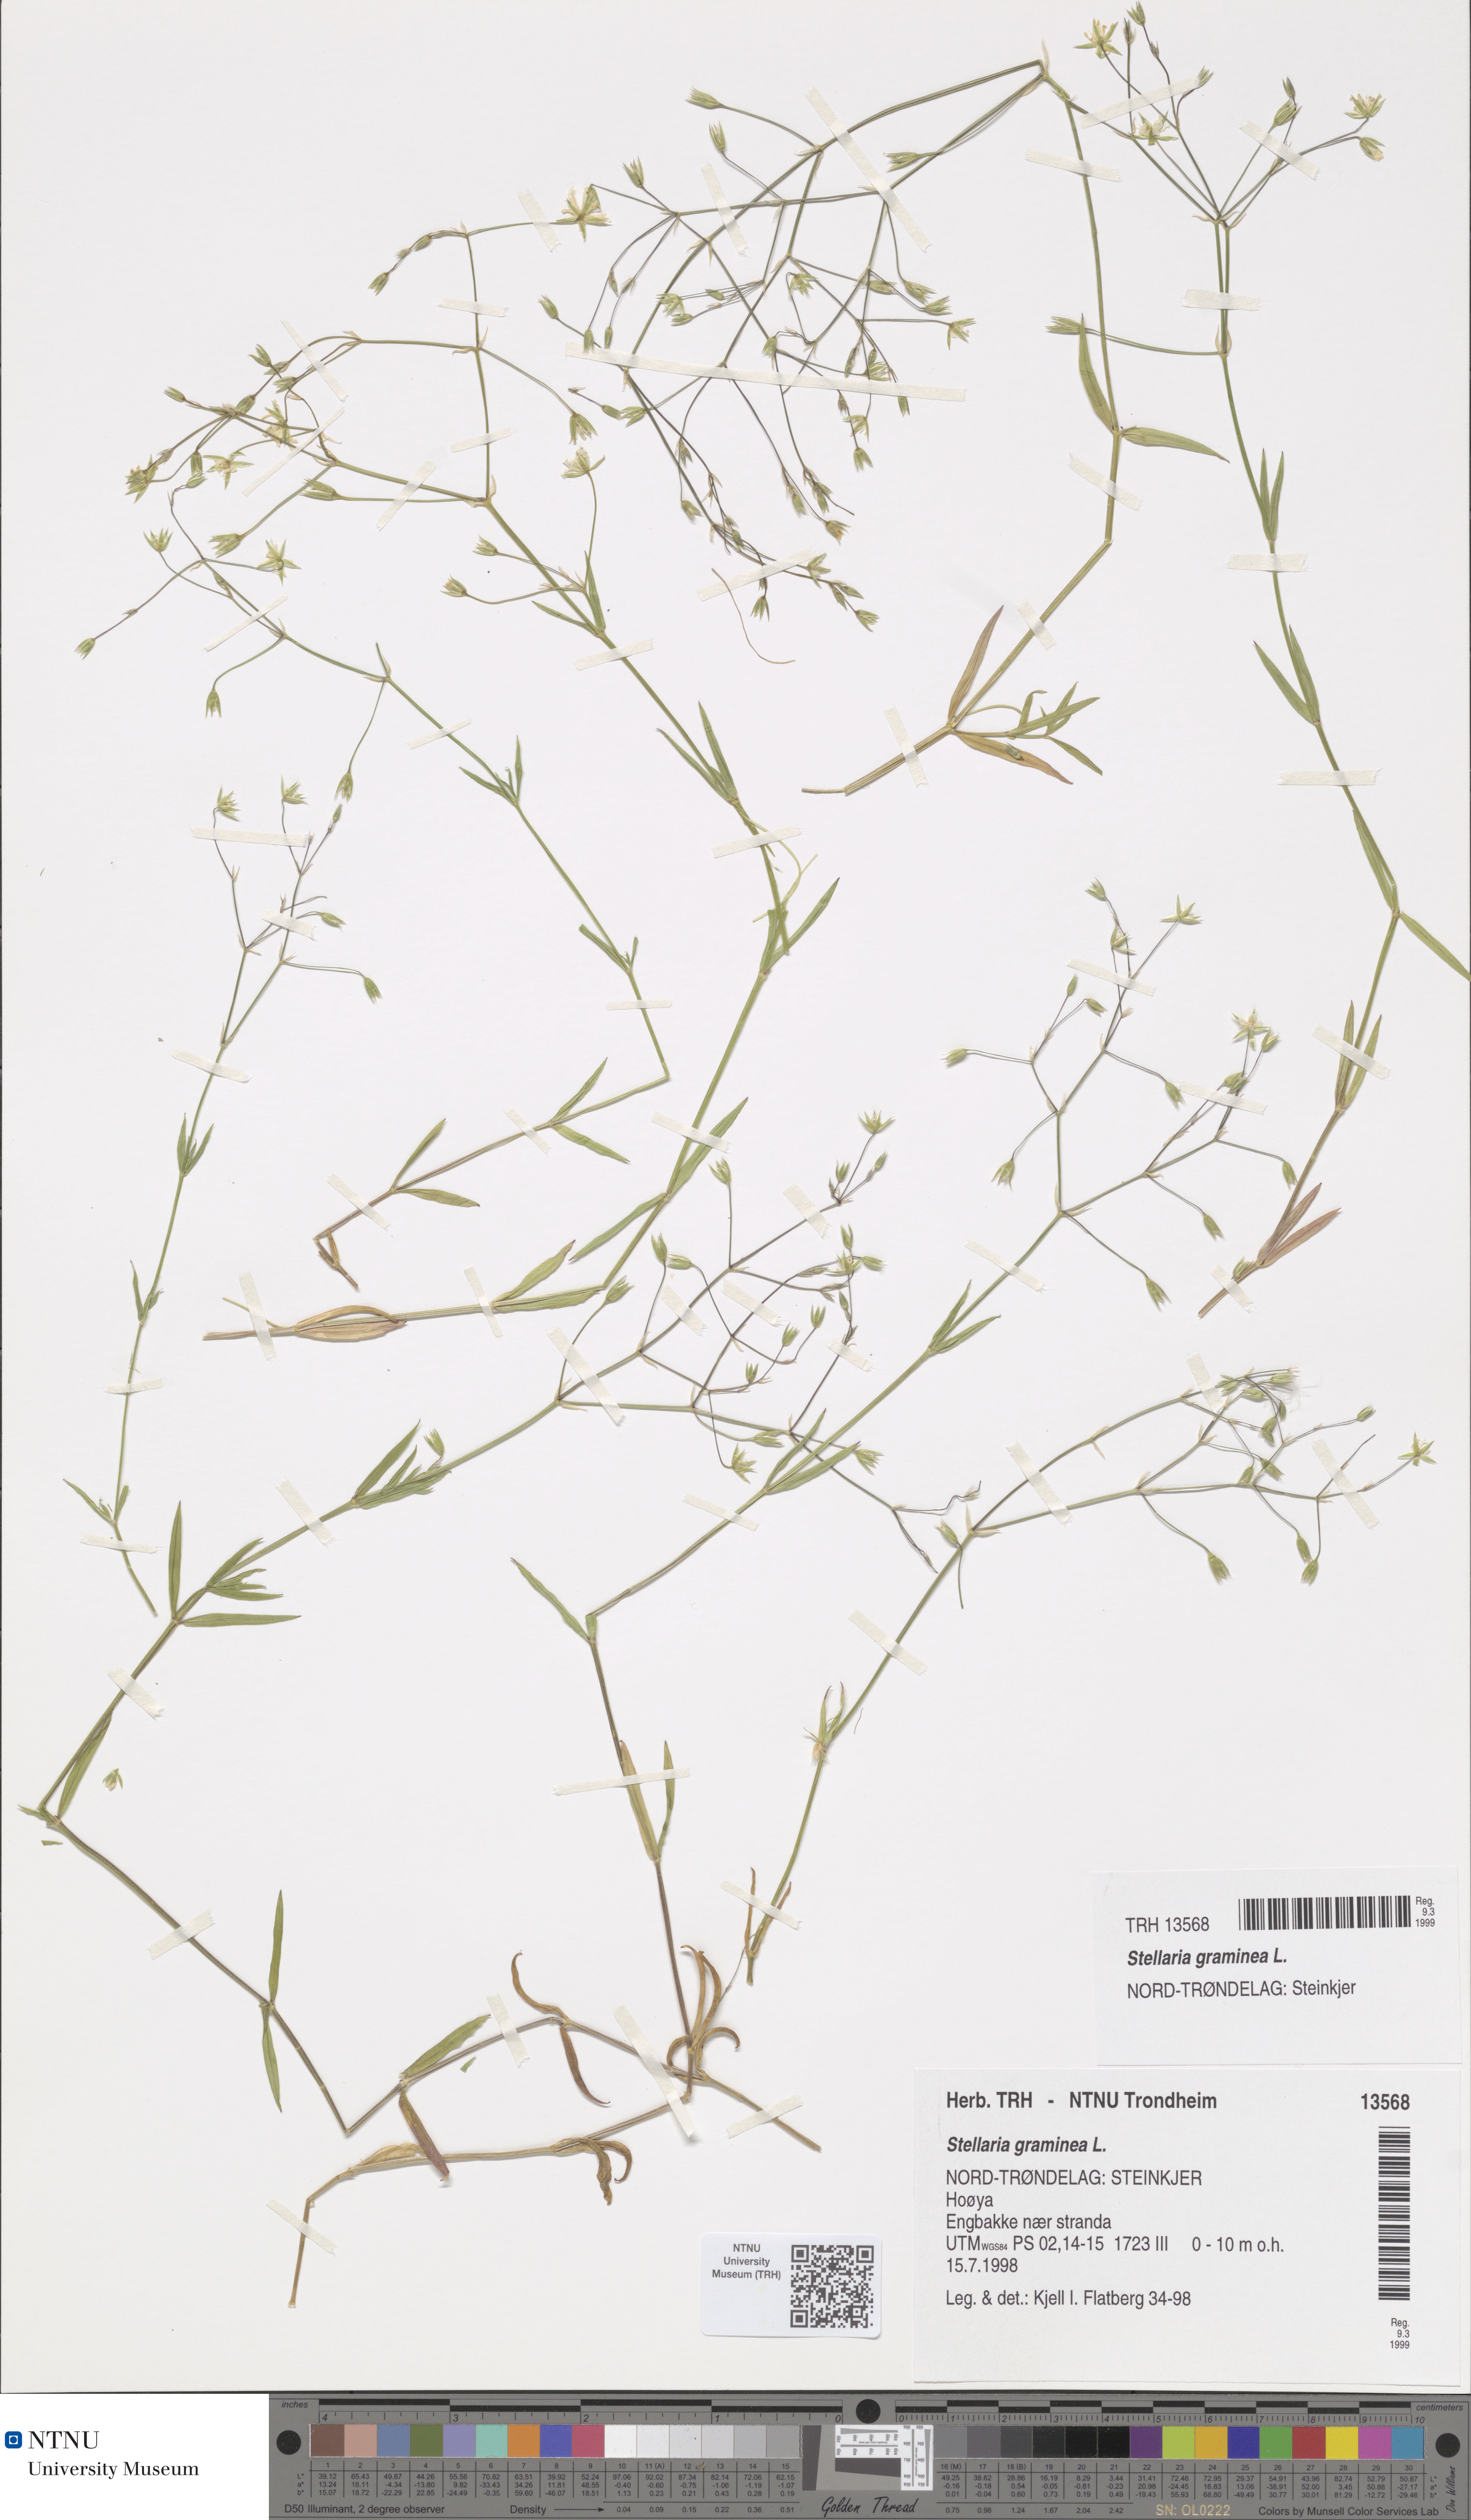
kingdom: Plantae
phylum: Tracheophyta
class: Magnoliopsida
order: Caryophyllales
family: Caryophyllaceae
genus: Stellaria
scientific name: Stellaria graminea
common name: Grass-like starwort
